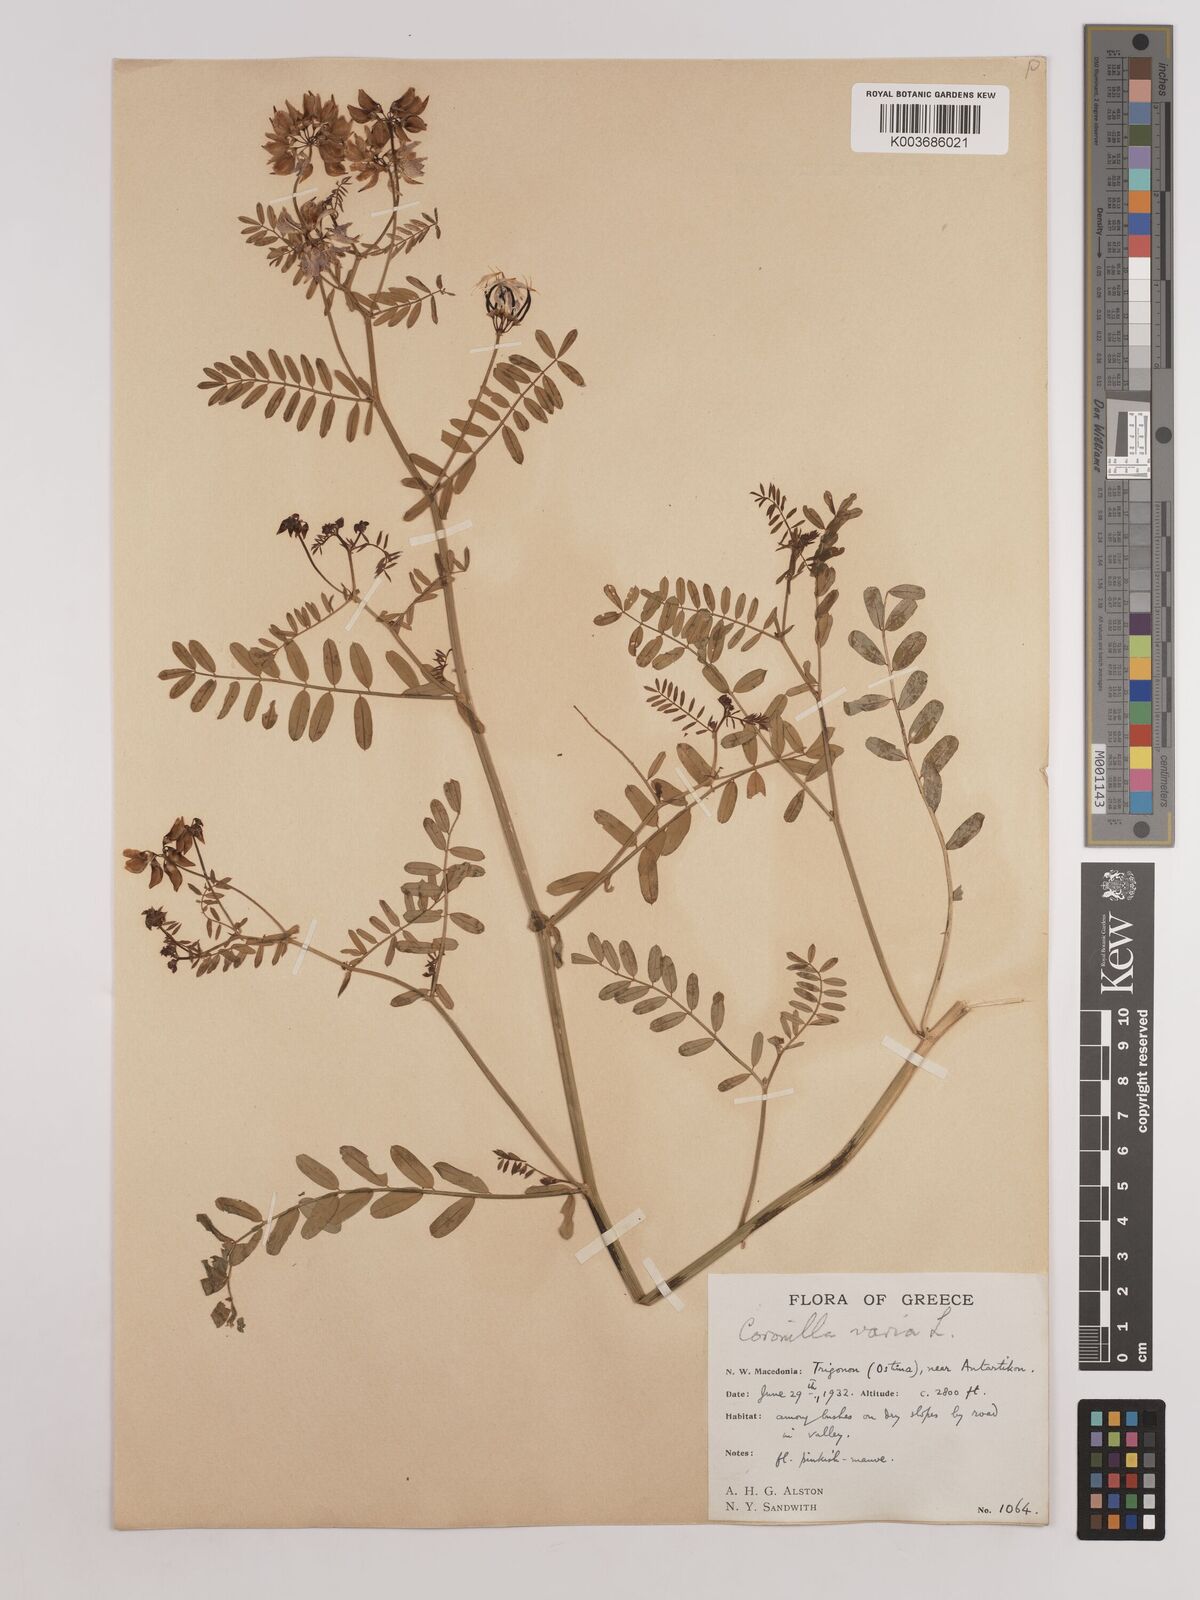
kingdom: Plantae
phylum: Tracheophyta
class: Magnoliopsida
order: Fabales
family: Fabaceae
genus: Coronilla
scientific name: Coronilla varia
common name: Crownvetch
